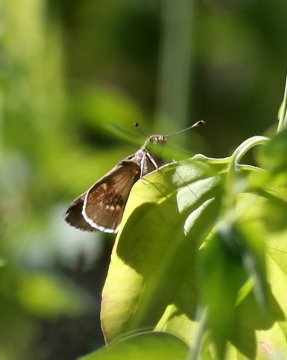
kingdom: Animalia
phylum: Arthropoda
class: Insecta
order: Lepidoptera
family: Hesperiidae
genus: Lerodea
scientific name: Lerodea arabus
